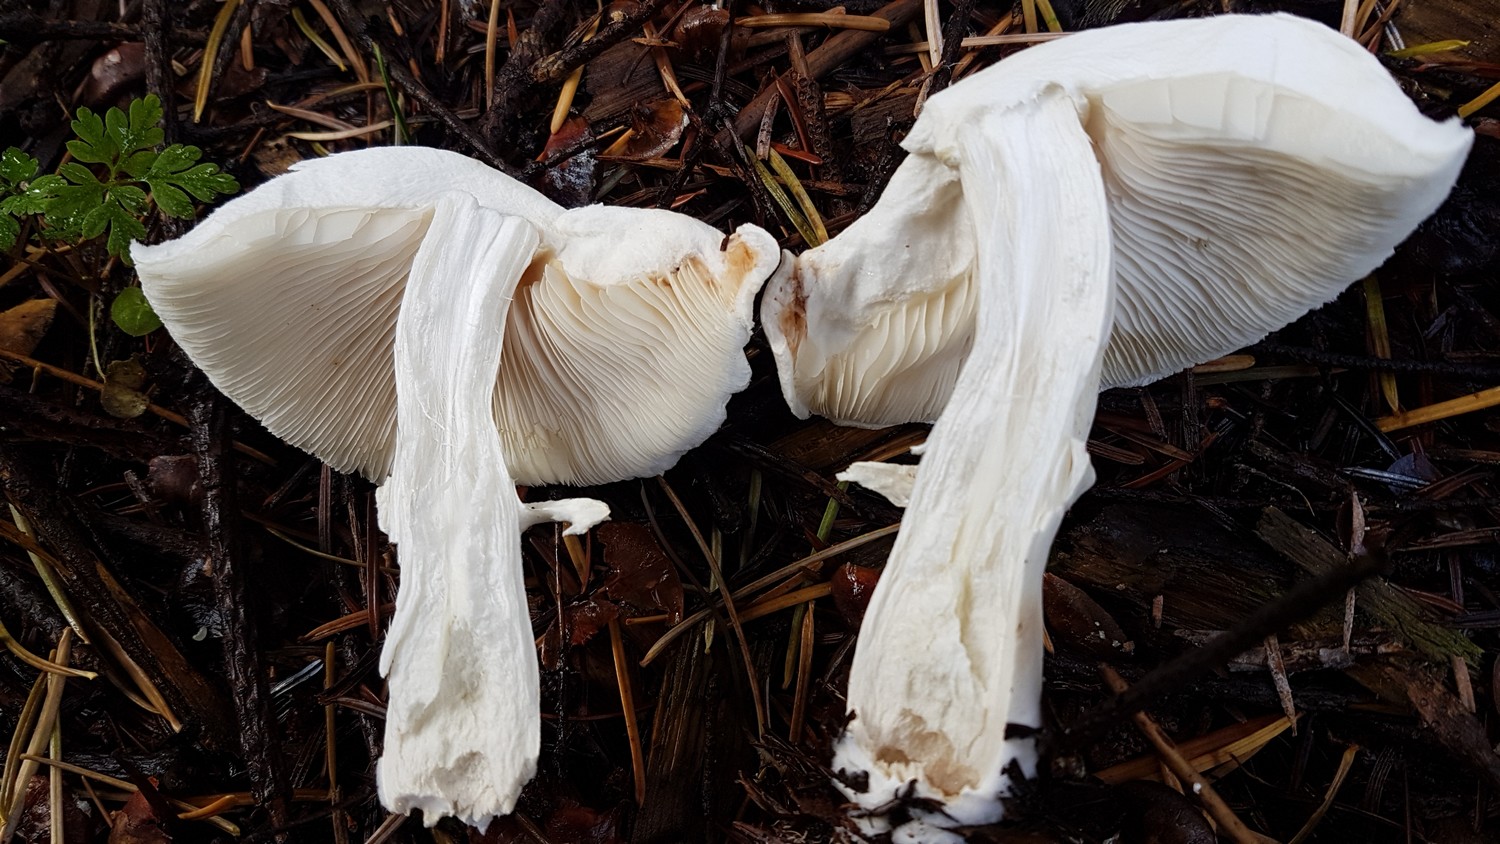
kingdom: Fungi
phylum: Basidiomycota
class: Agaricomycetes
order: Agaricales
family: Agaricaceae
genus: Leucoagaricus
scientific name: Leucoagaricus leucothites
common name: rosabladet silkehat
